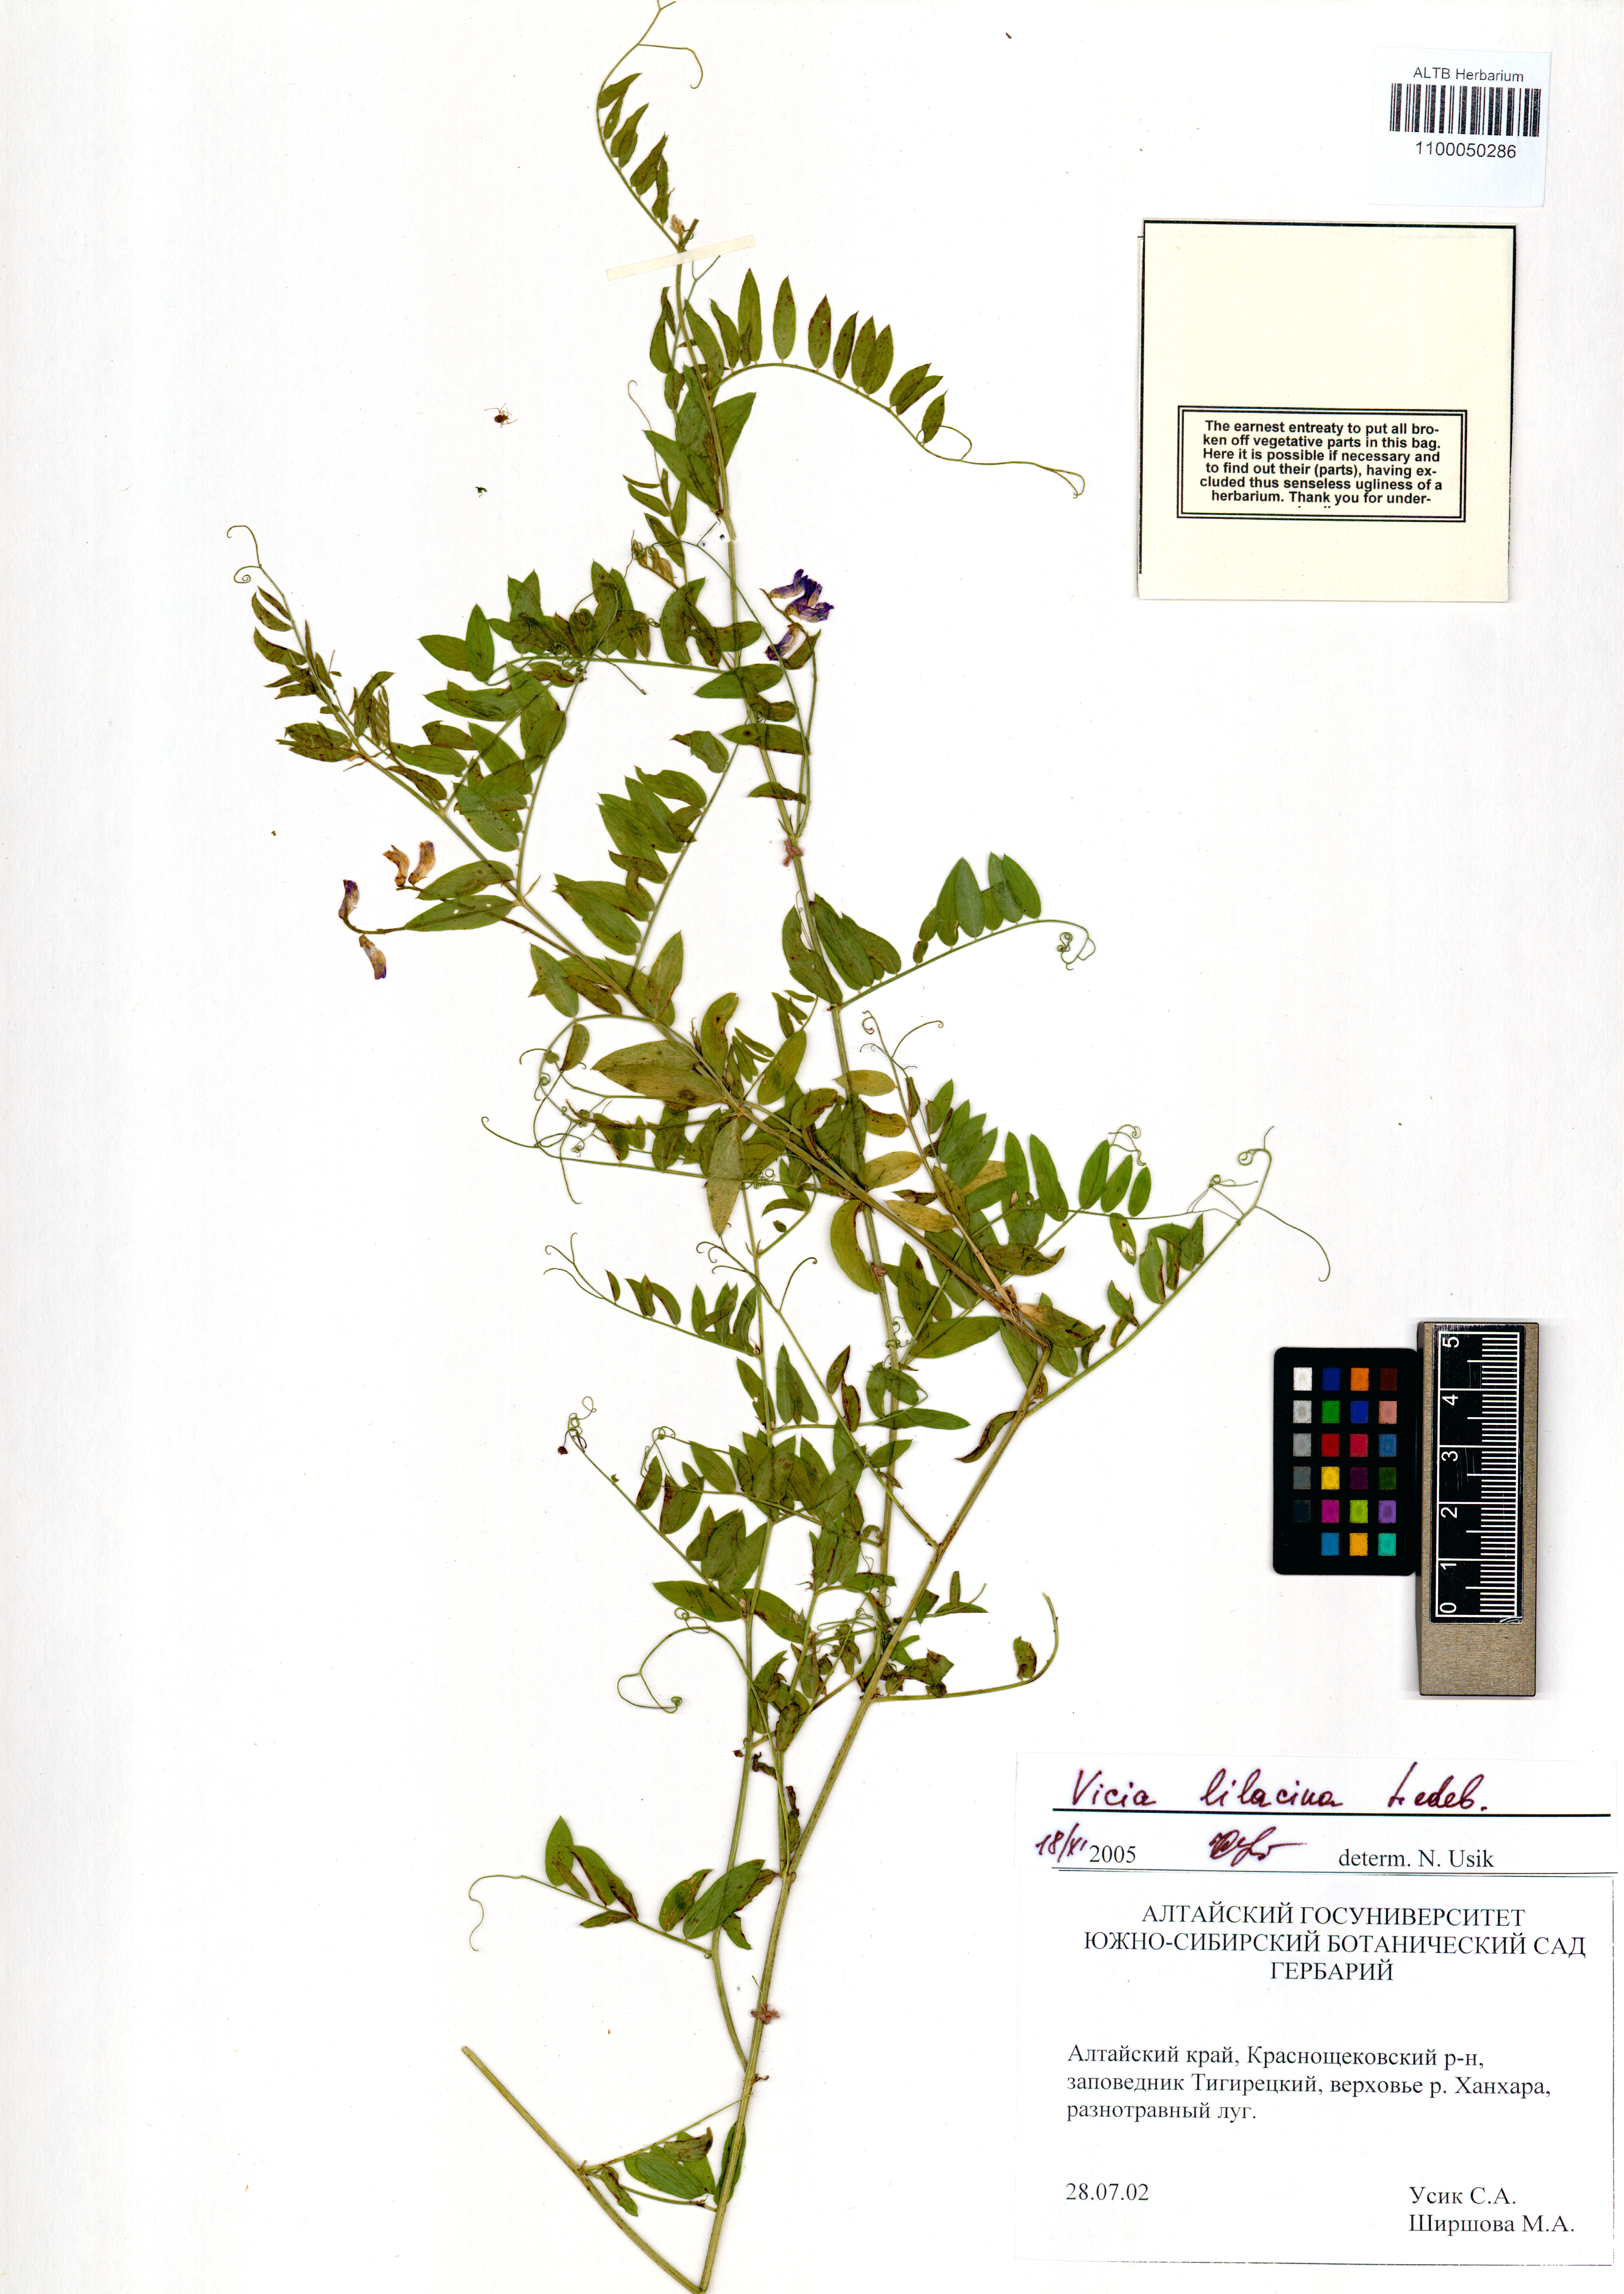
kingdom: Plantae
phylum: Tracheophyta
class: Magnoliopsida
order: Fabales
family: Fabaceae
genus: Vicia
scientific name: Vicia lilacina
